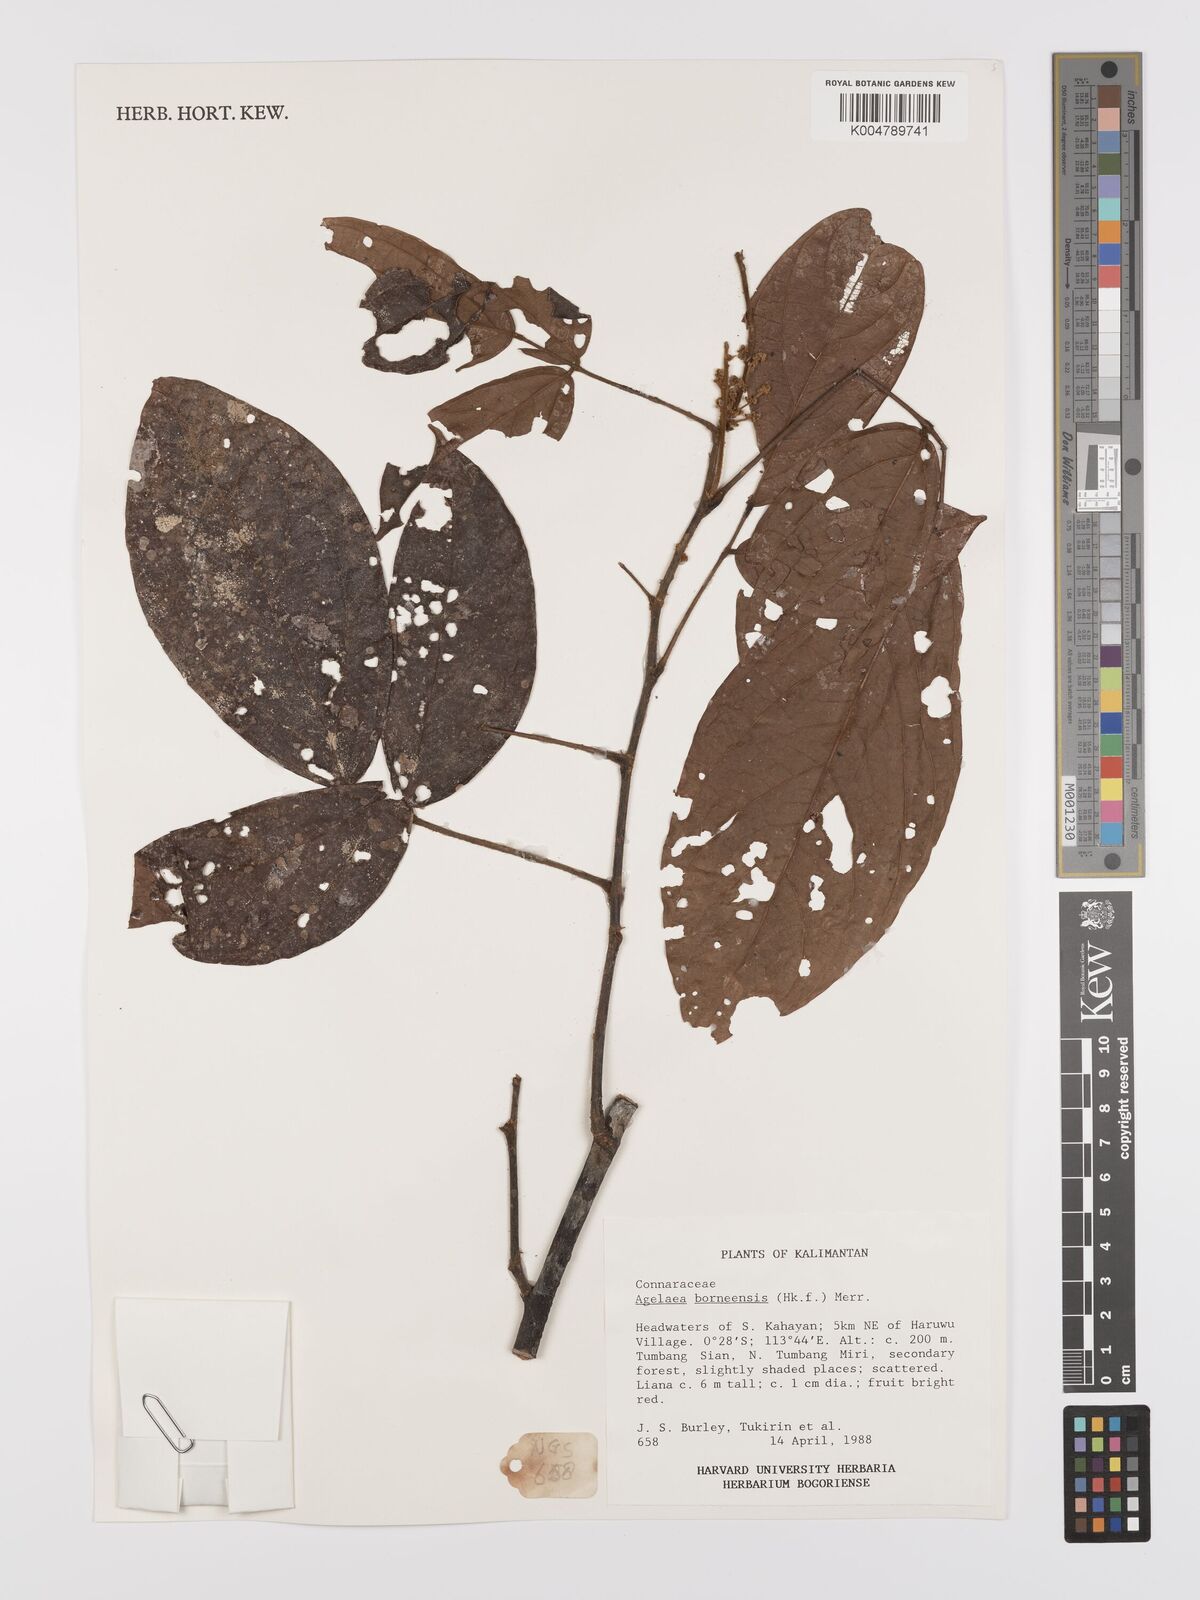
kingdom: Plantae
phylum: Tracheophyta
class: Magnoliopsida
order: Oxalidales
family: Connaraceae
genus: Agelaea
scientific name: Agelaea borneensis
